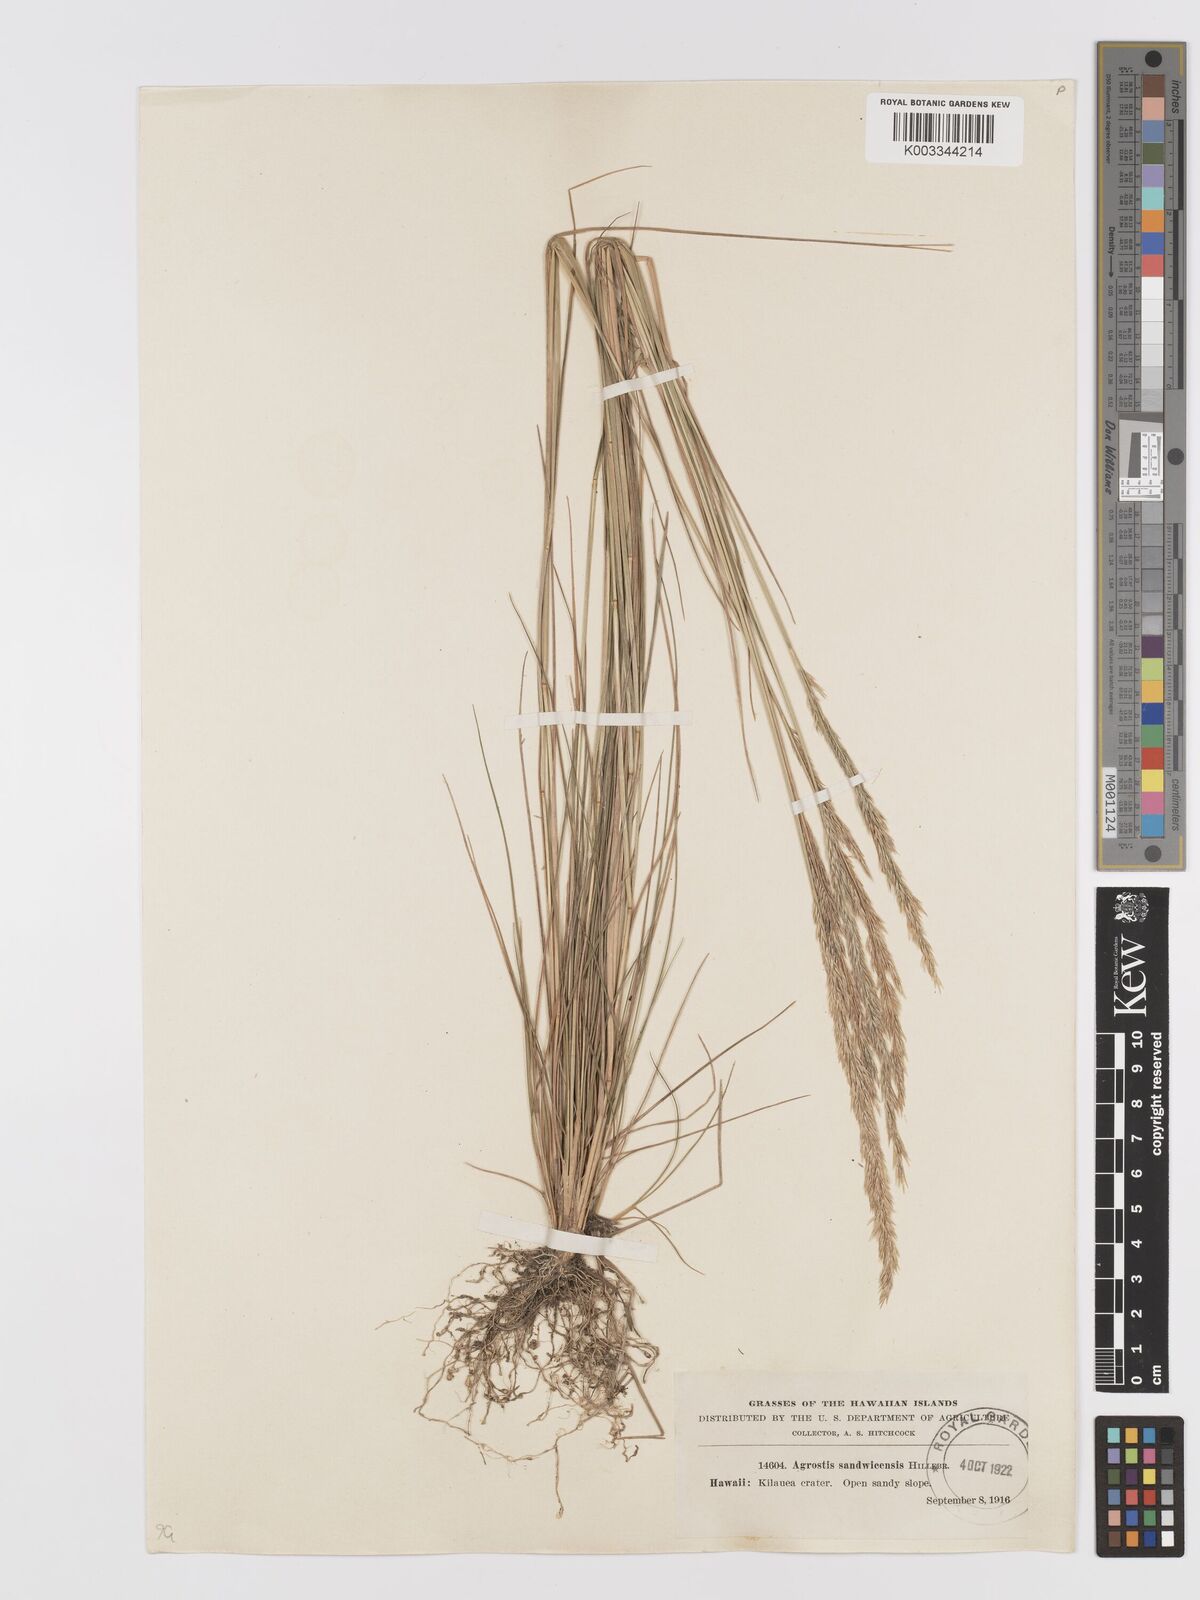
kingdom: Plantae
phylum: Tracheophyta
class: Liliopsida
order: Poales
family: Poaceae
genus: Agrostis
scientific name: Agrostis
